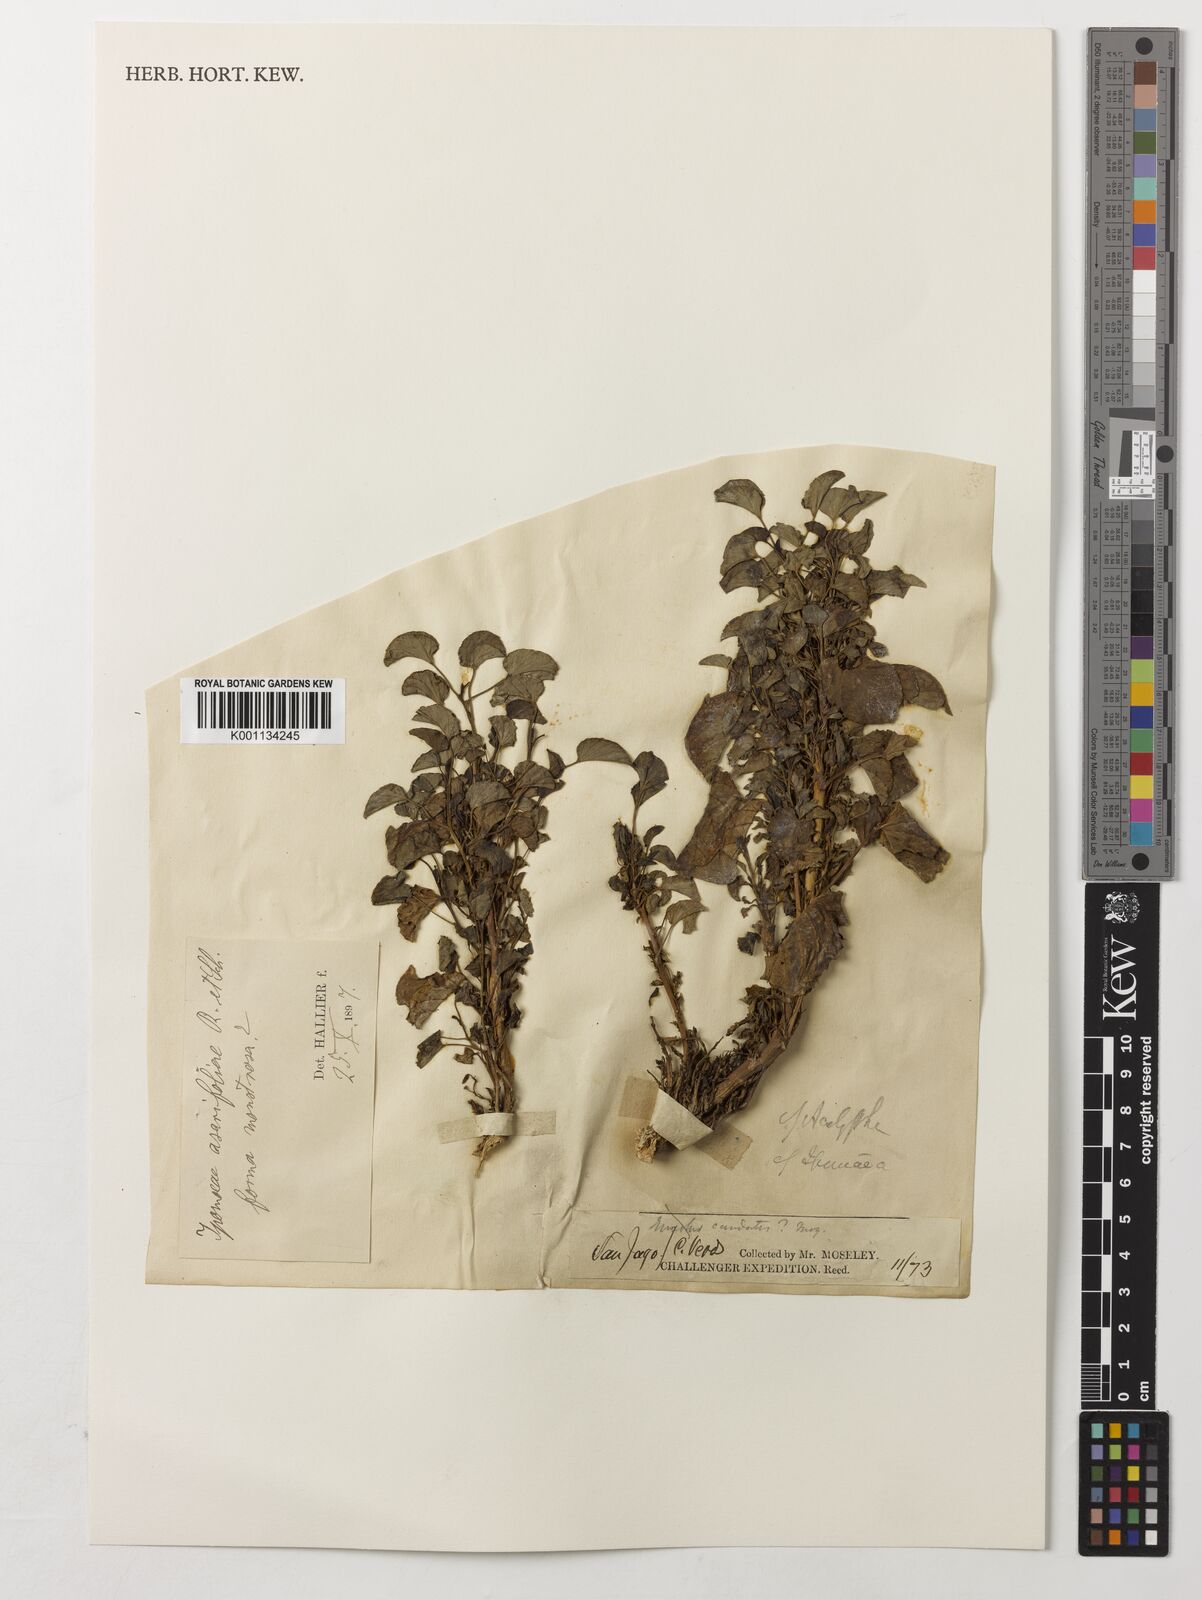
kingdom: Plantae
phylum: Tracheophyta
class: Magnoliopsida
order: Solanales
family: Convolvulaceae
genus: Ipomoea
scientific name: Ipomoea asarifolia
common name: Ginger-leaf morning-glory
